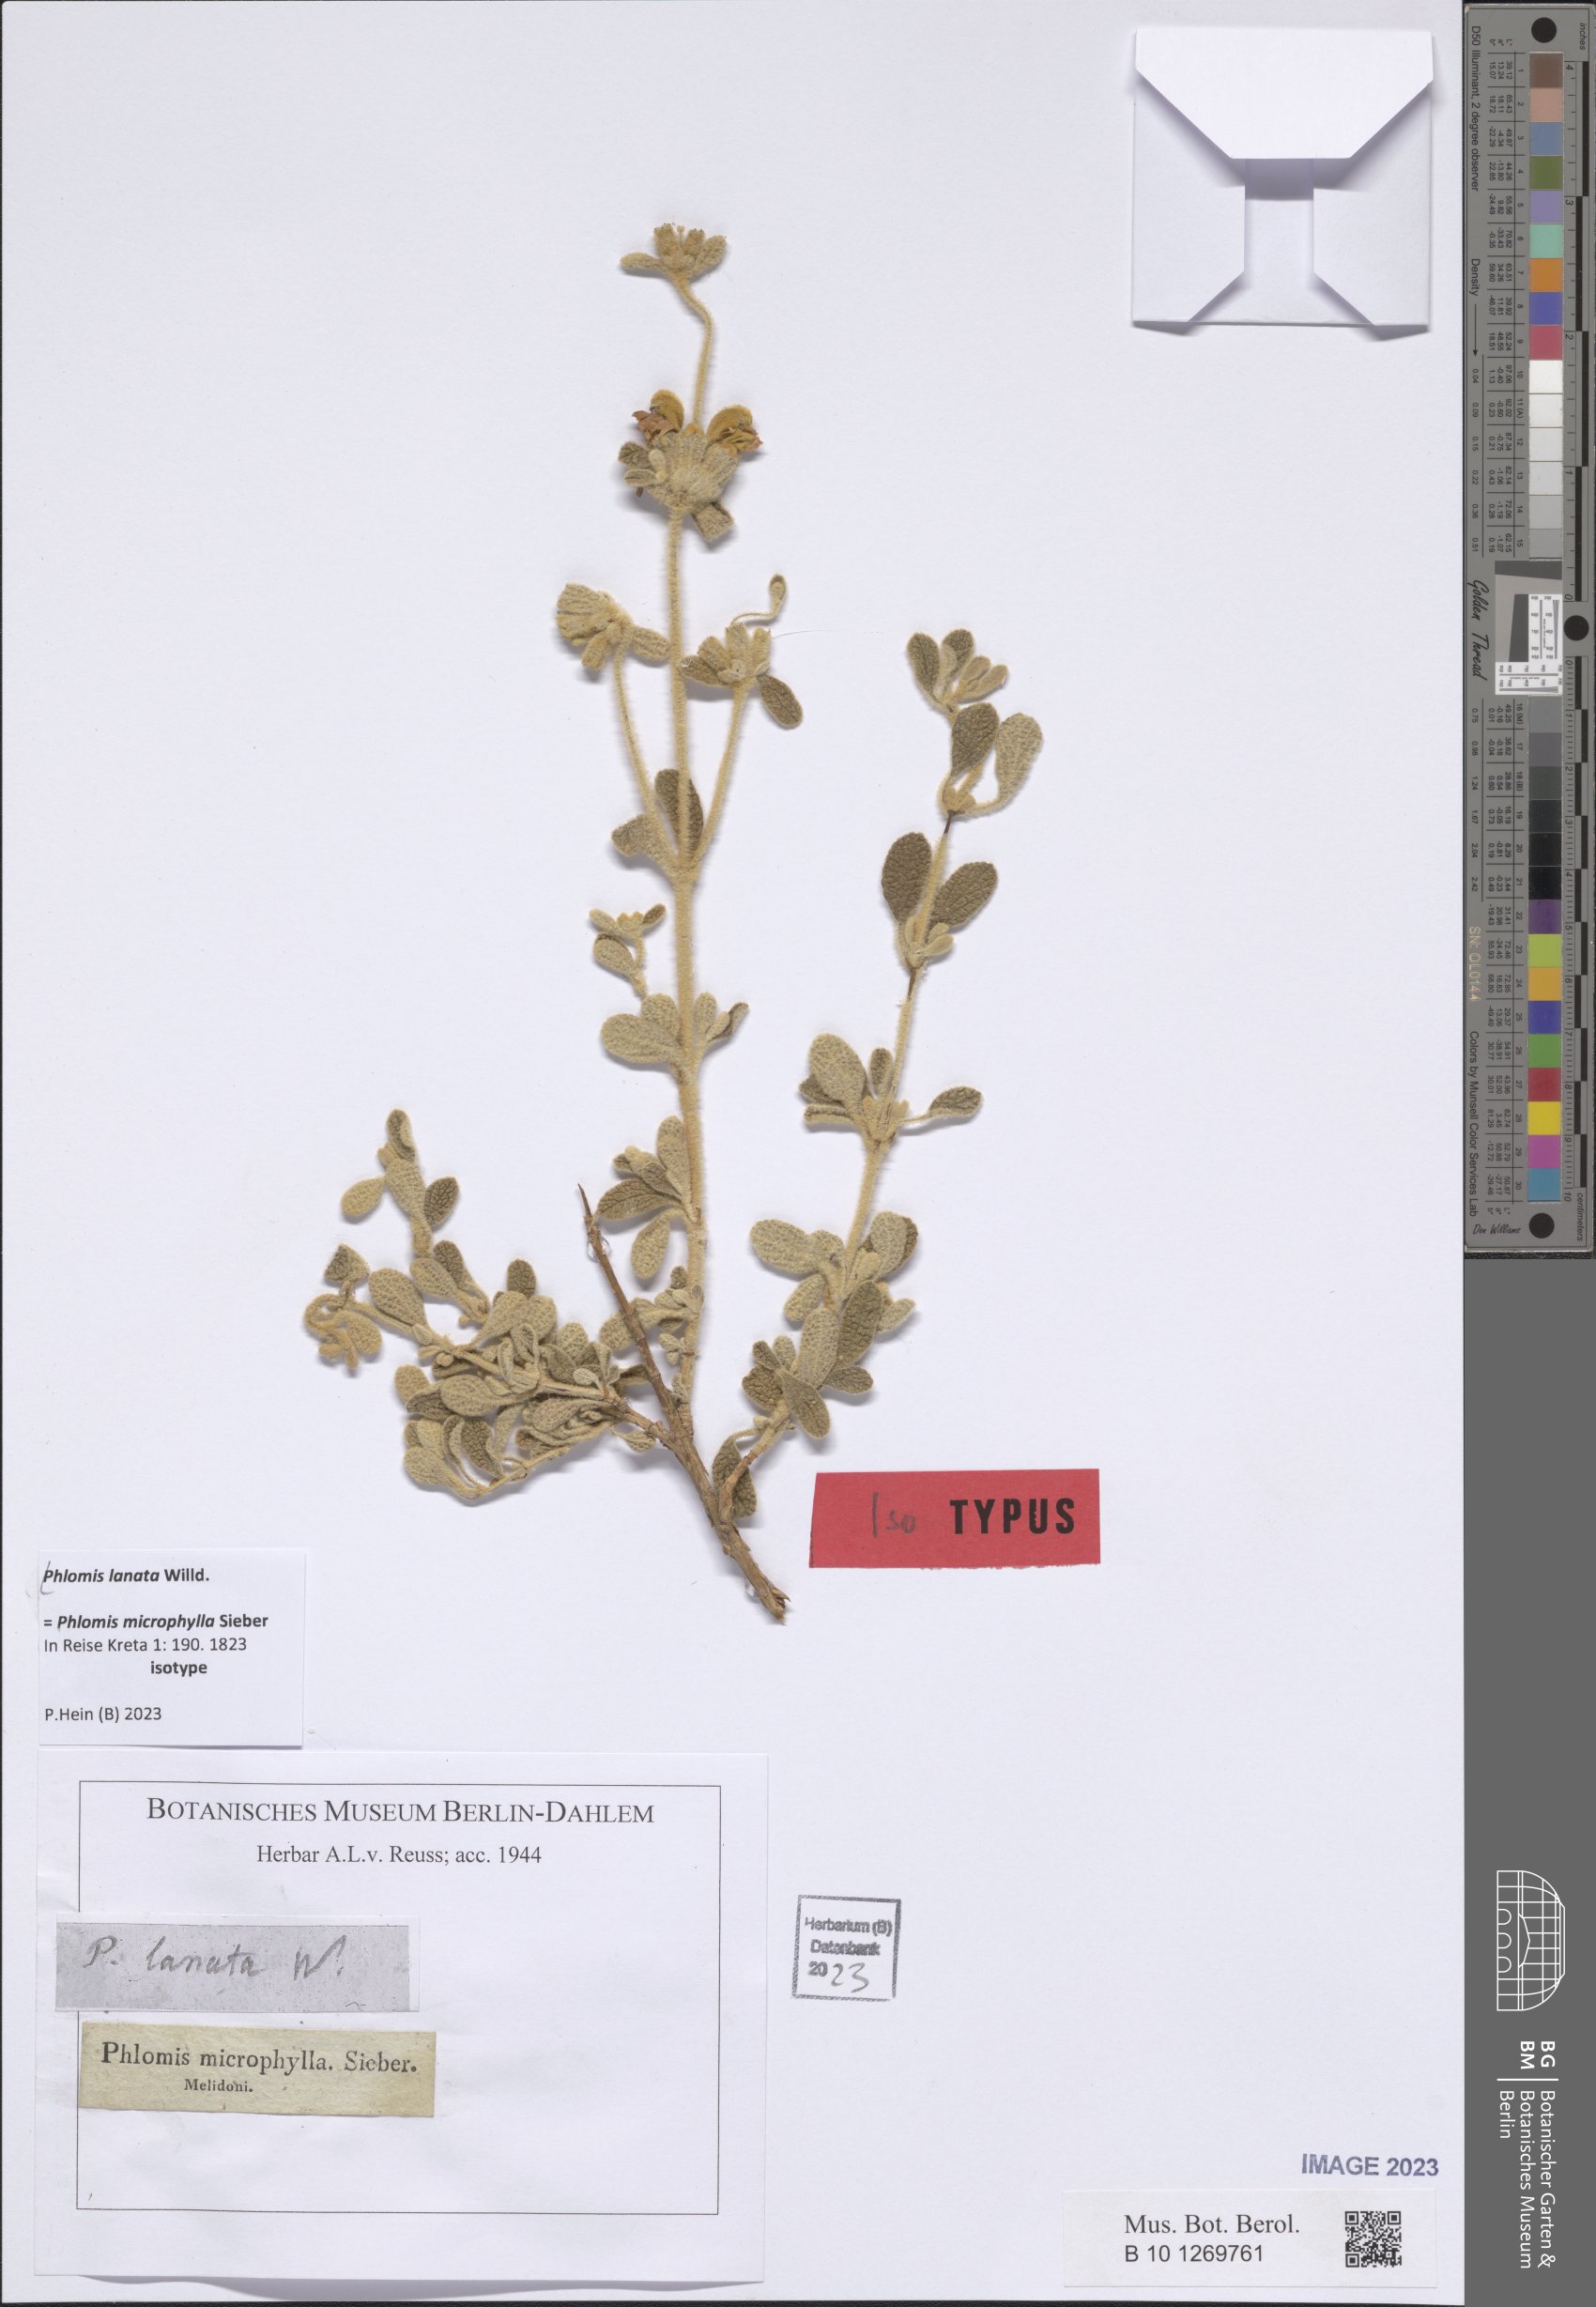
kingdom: Plantae
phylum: Tracheophyta
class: Magnoliopsida
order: Lamiales
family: Lamiaceae
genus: Phlomis
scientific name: Phlomis lanata
